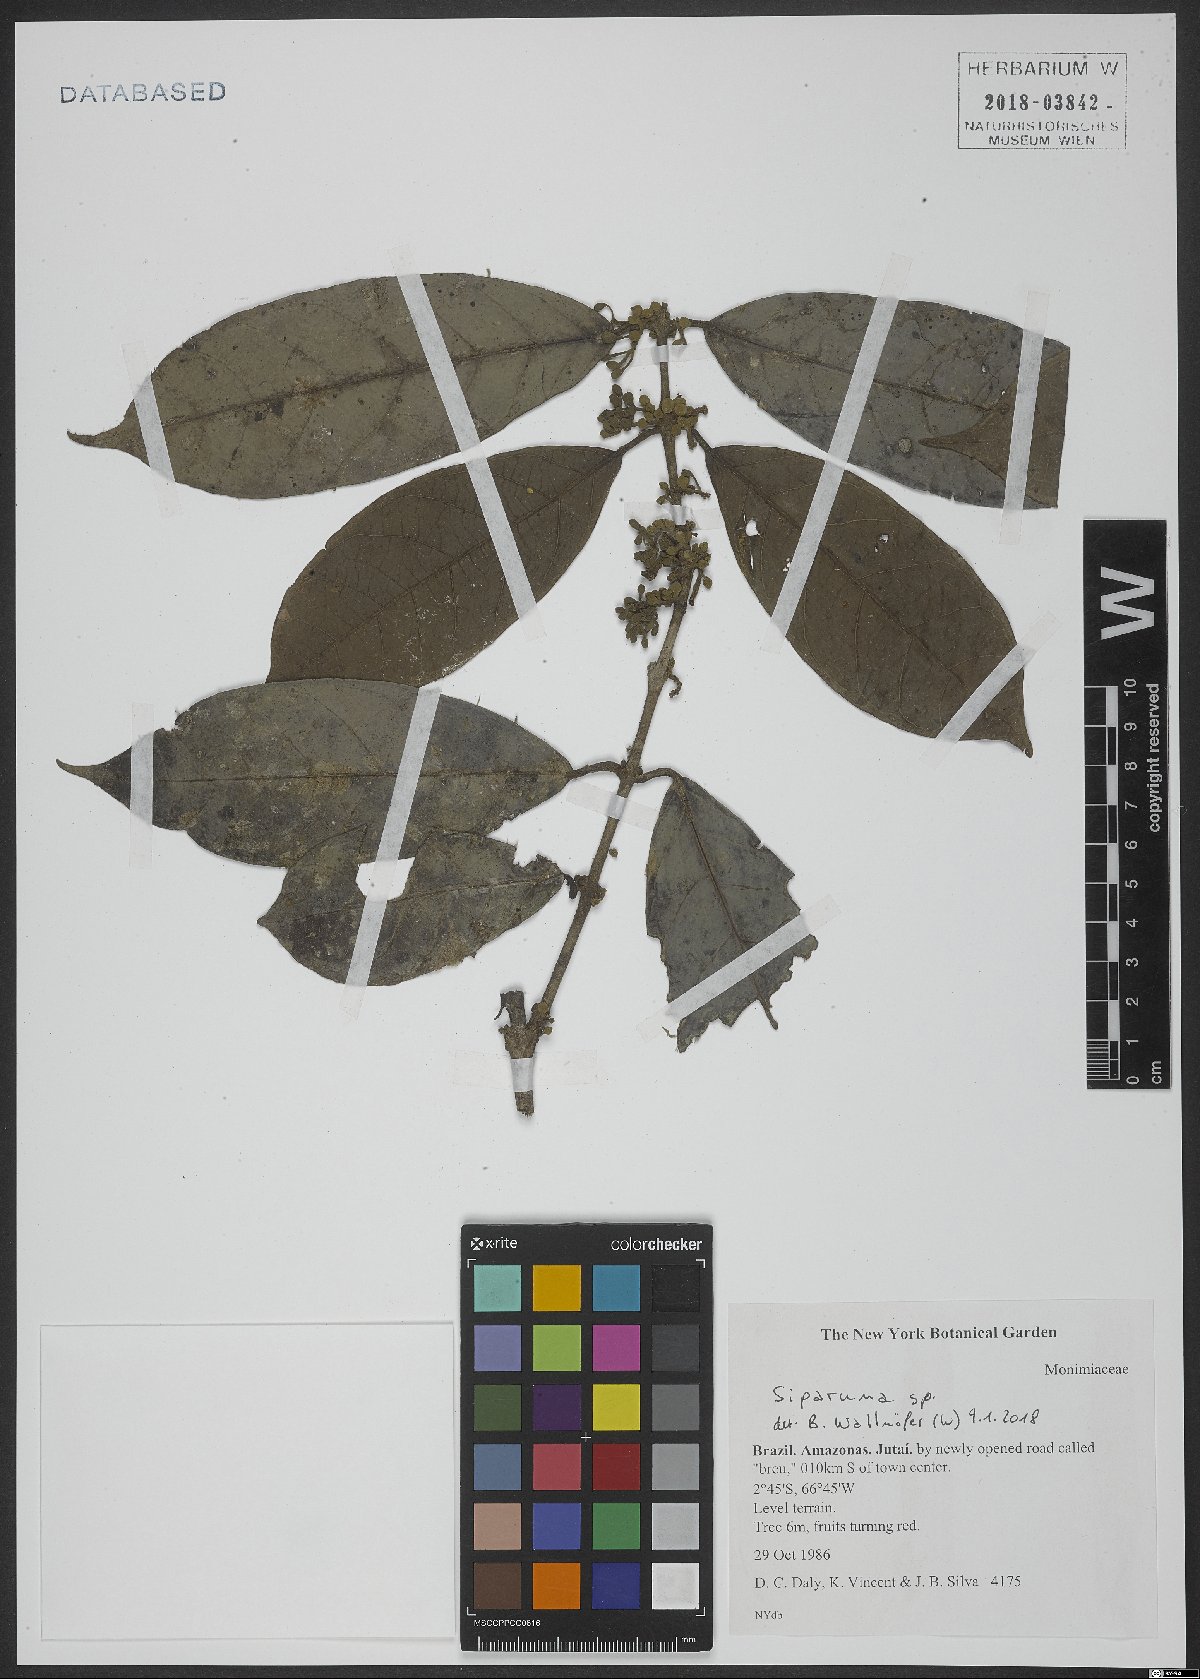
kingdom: Plantae
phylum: Tracheophyta
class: Magnoliopsida
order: Laurales
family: Siparunaceae
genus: Siparuna
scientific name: Siparuna
